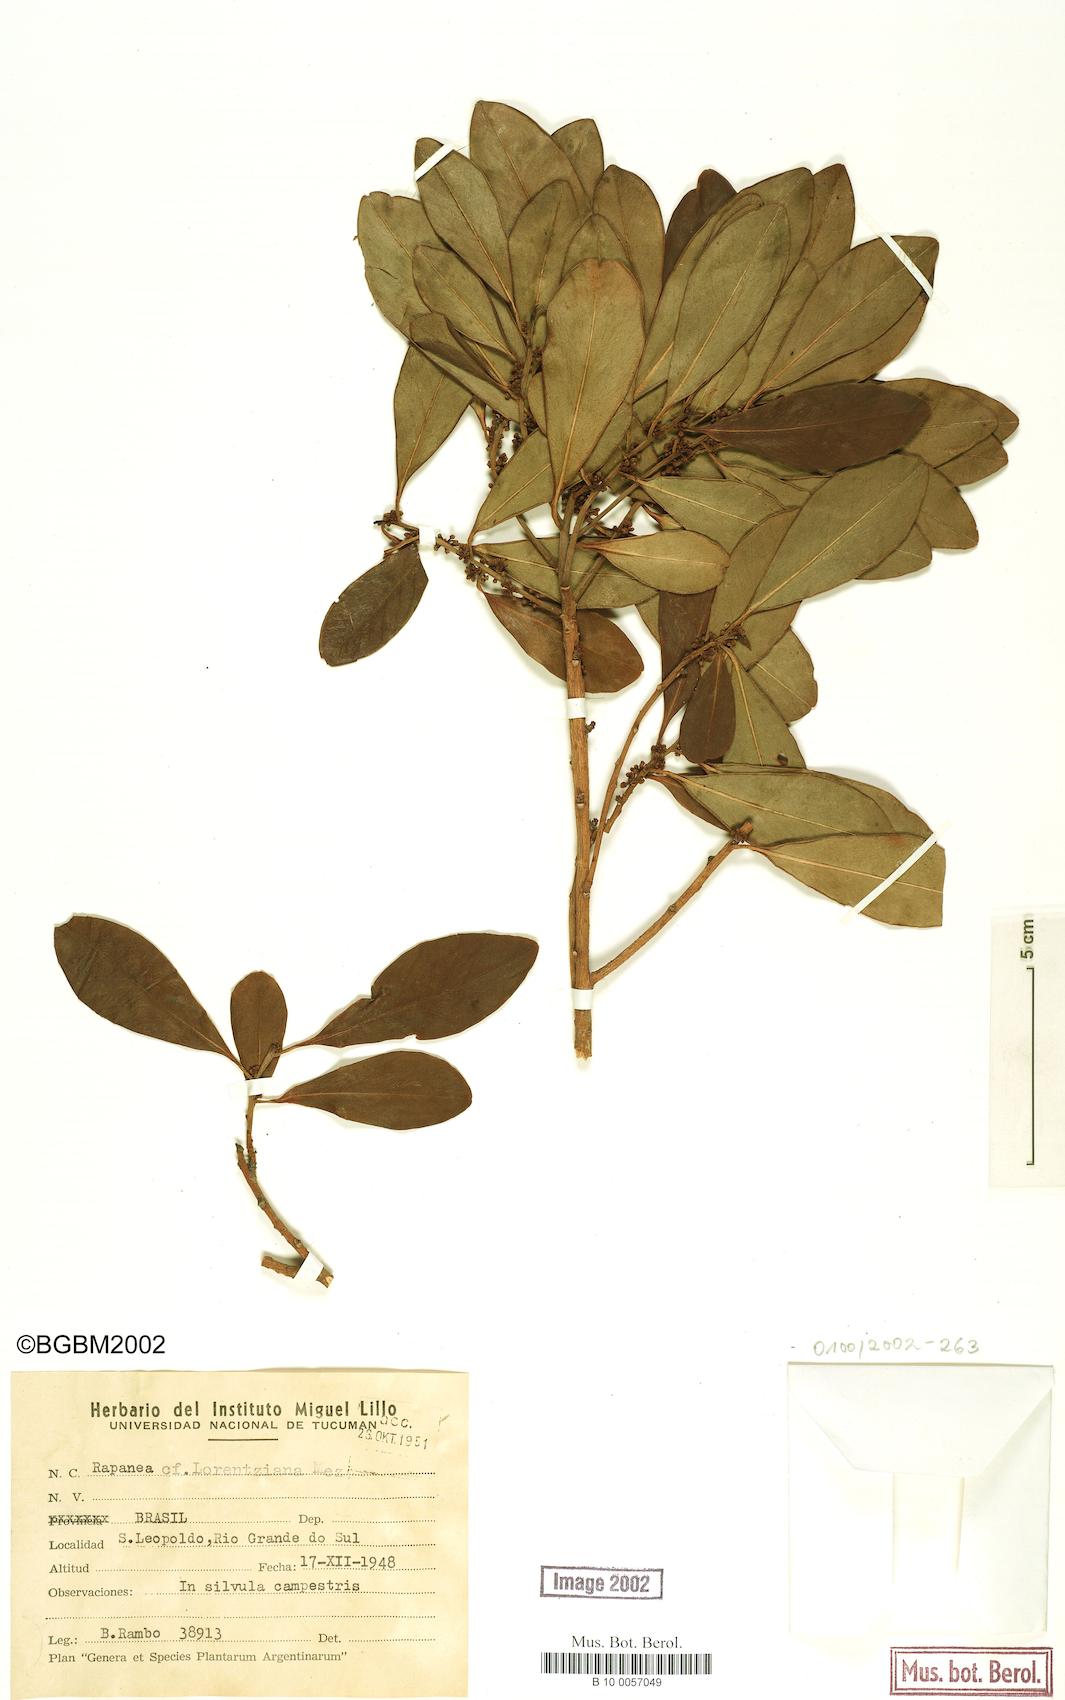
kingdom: Plantae
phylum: Tracheophyta
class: Magnoliopsida
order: Ericales
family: Primulaceae
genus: Myrsine
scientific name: Myrsine lorentziana
